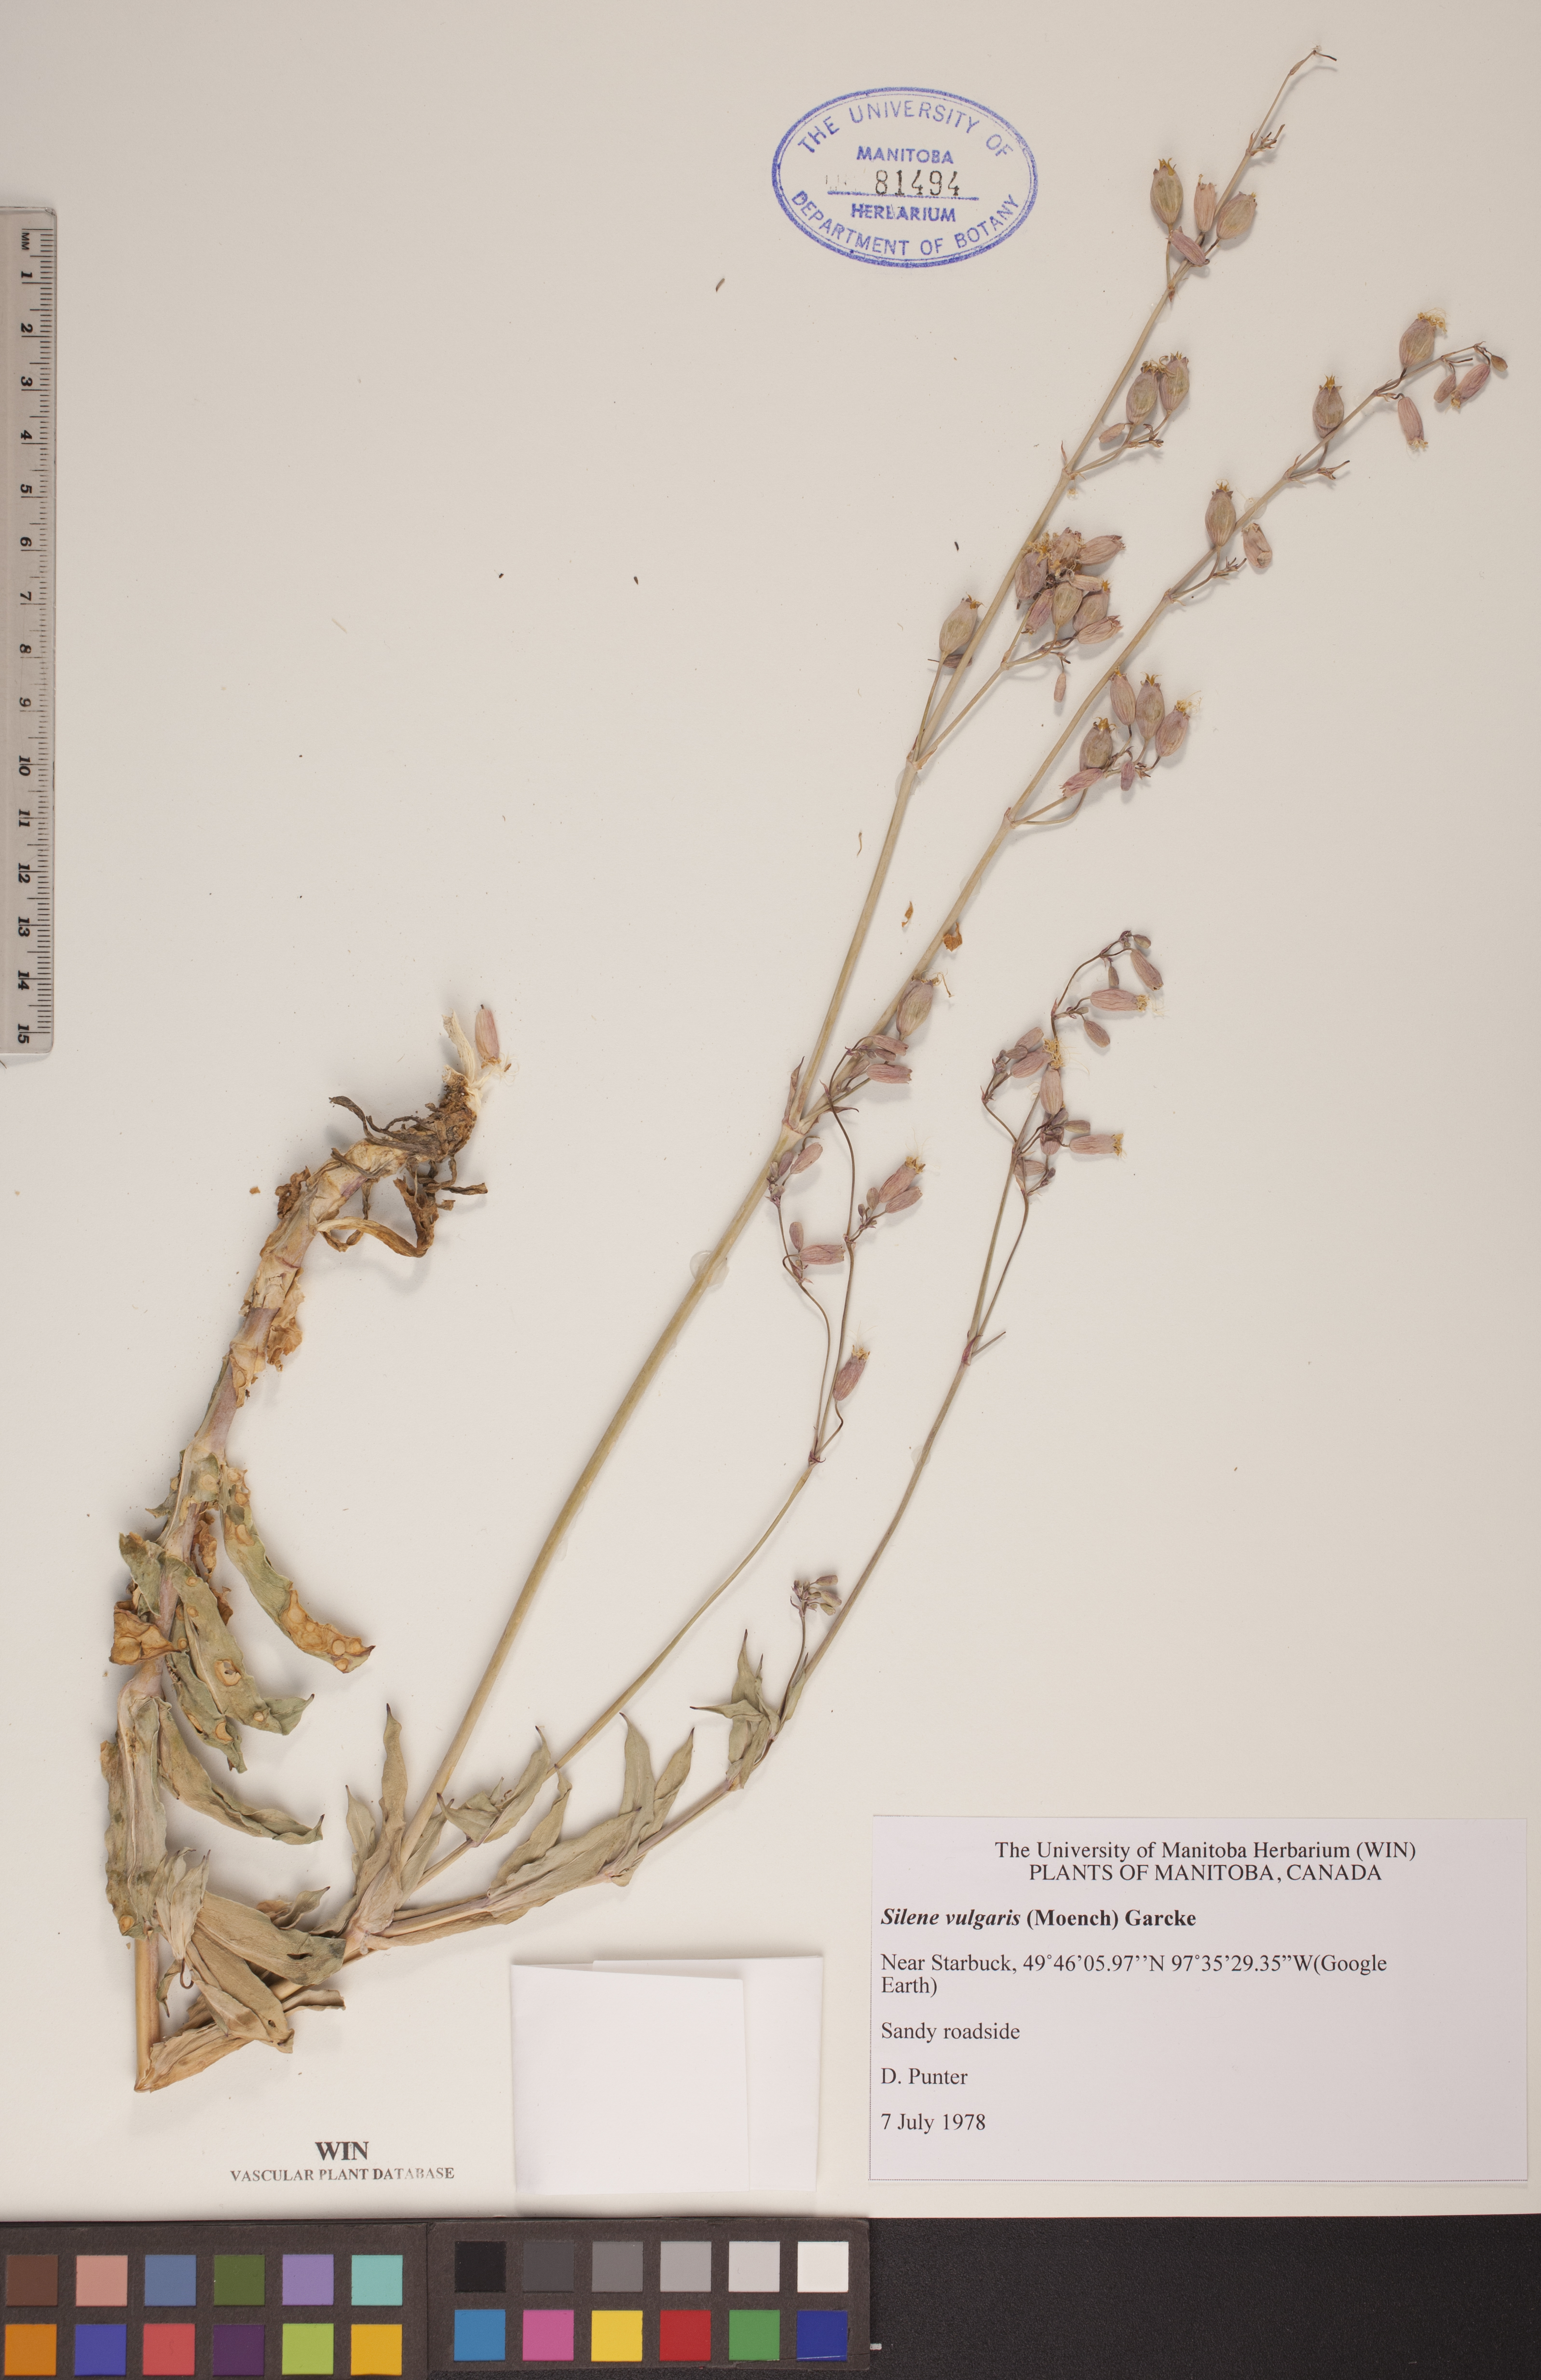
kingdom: Plantae
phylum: Tracheophyta
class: Magnoliopsida
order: Caryophyllales
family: Caryophyllaceae
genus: Silene
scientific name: Silene csereii
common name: Balkan catchfly
